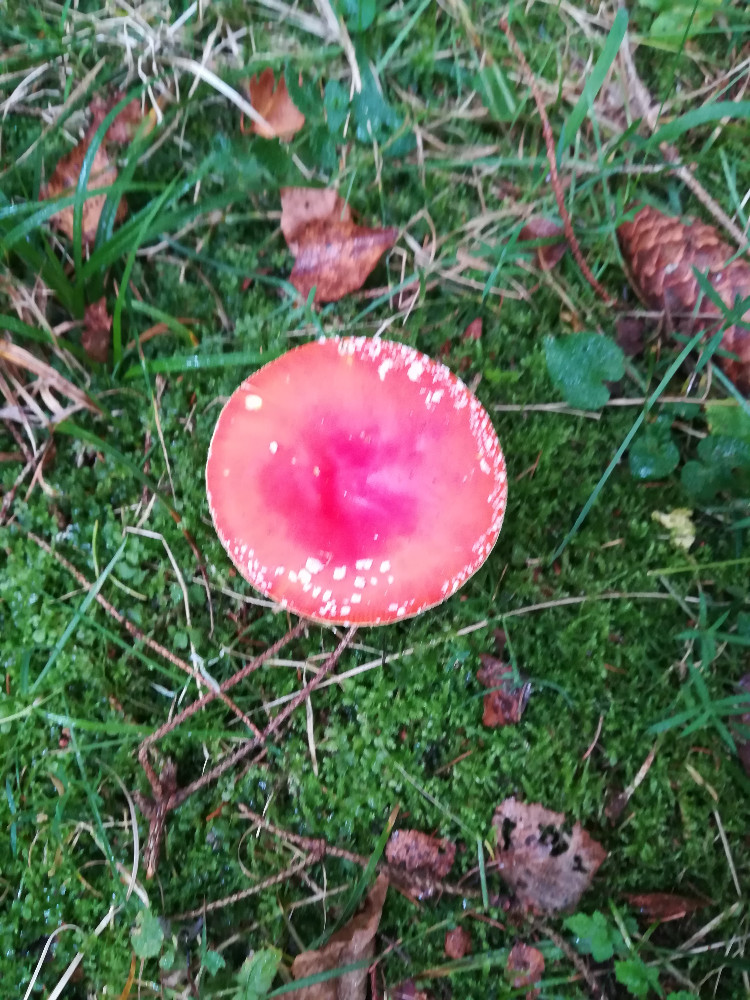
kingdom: Fungi
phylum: Basidiomycota
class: Agaricomycetes
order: Agaricales
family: Amanitaceae
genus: Amanita
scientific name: Amanita muscaria
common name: rød fluesvamp
